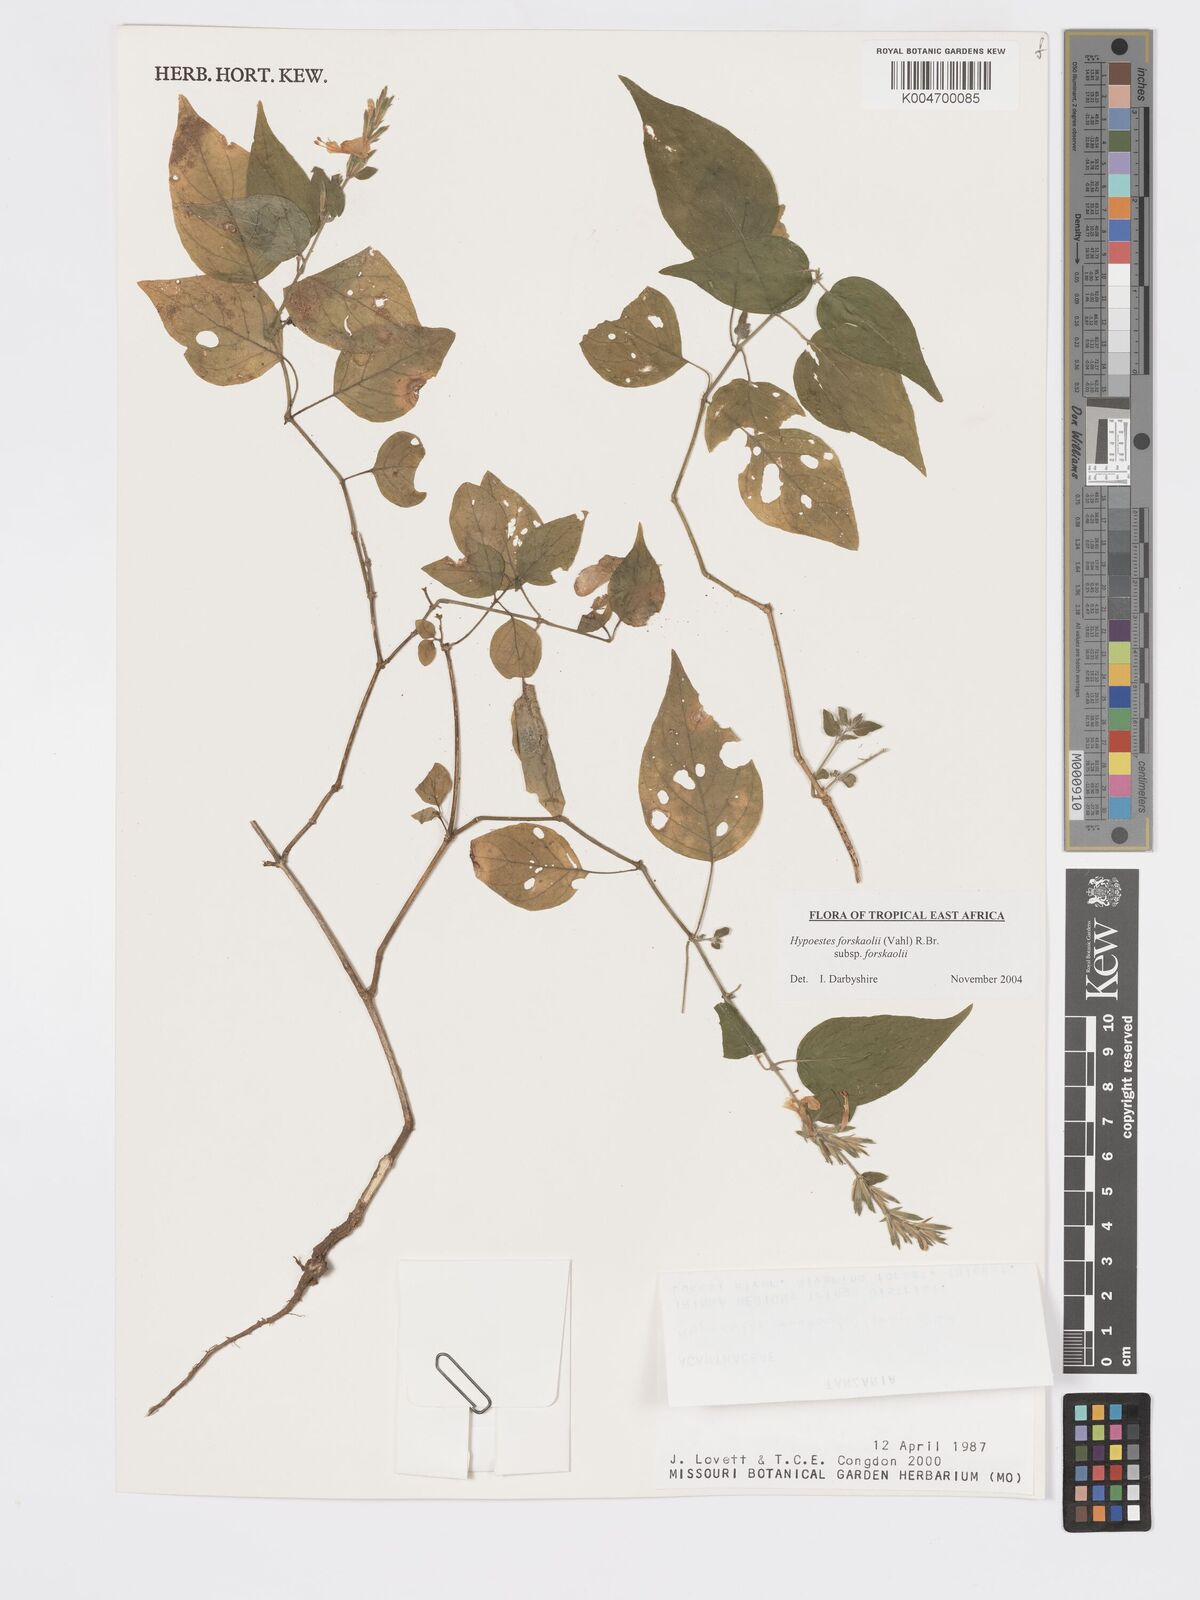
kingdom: Plantae
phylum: Tracheophyta
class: Magnoliopsida
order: Lamiales
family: Acanthaceae
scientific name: Acanthaceae
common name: Acanthaceae
